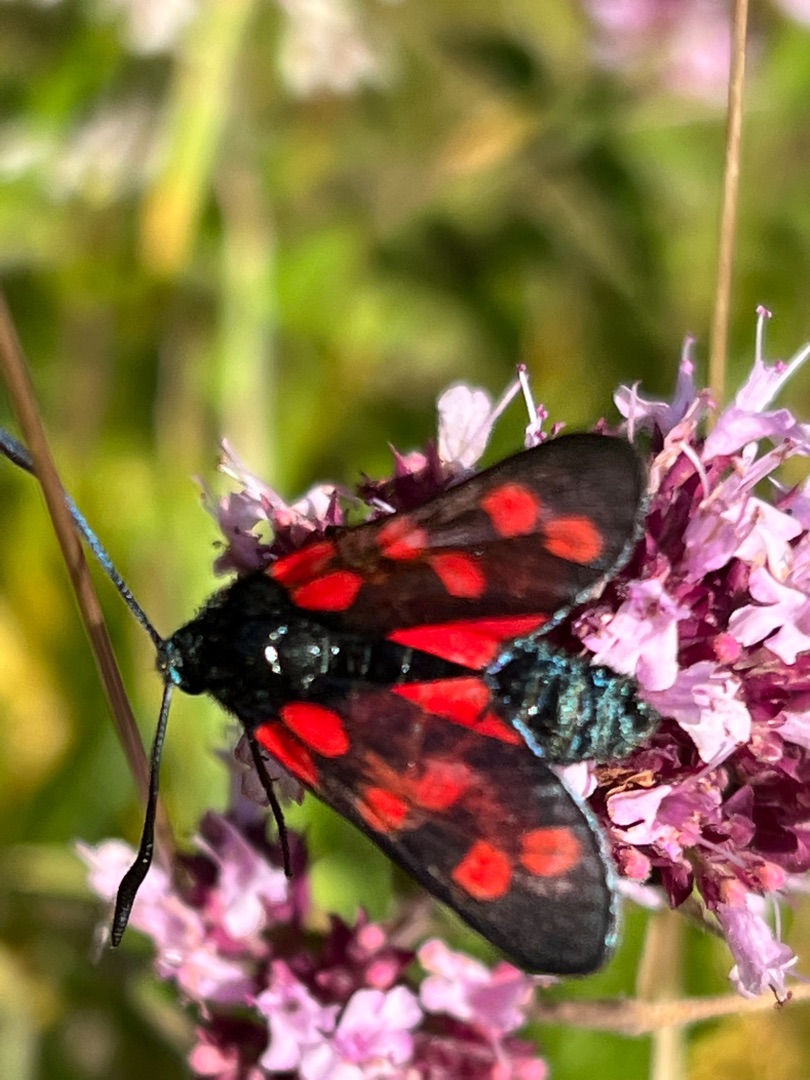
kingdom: Animalia
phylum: Arthropoda
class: Insecta
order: Lepidoptera
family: Zygaenidae
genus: Zygaena
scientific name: Zygaena filipendulae
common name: Seksplettet køllesværmer
